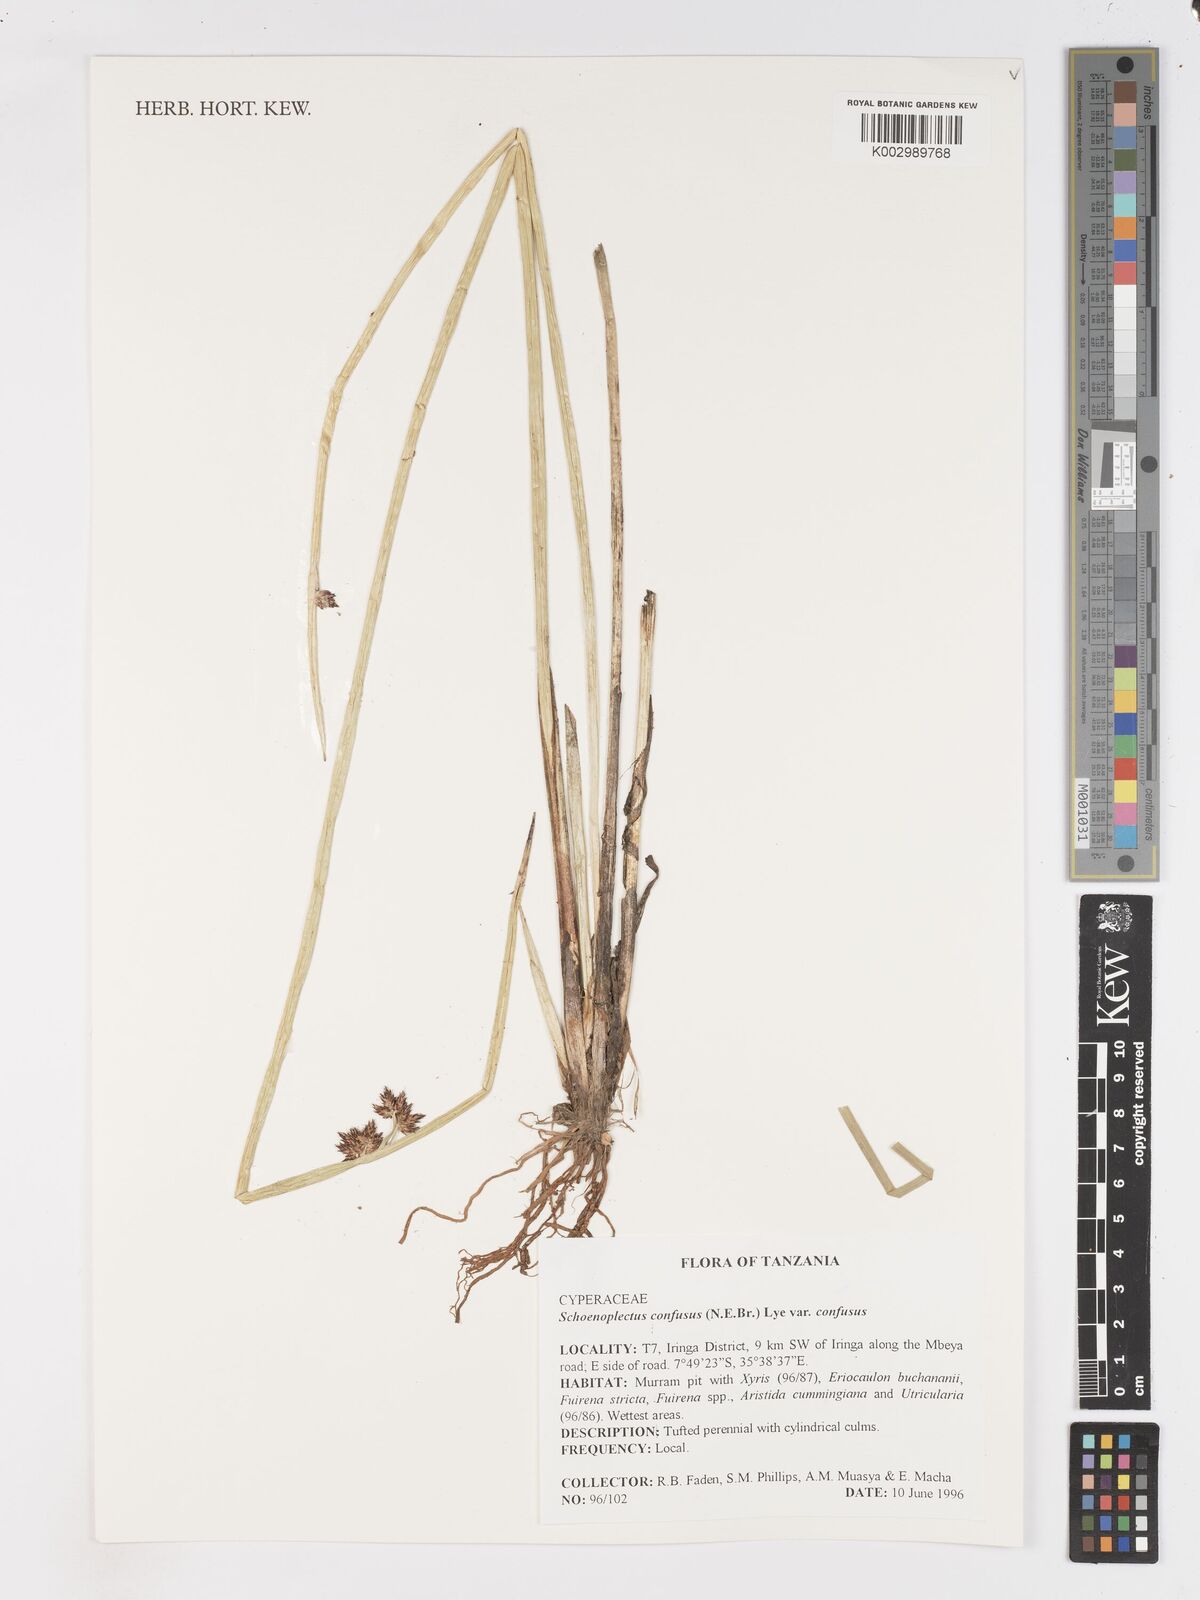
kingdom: Plantae
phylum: Tracheophyta
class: Liliopsida
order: Poales
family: Cyperaceae
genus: Schoenoplectiella
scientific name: Schoenoplectiella confusa
